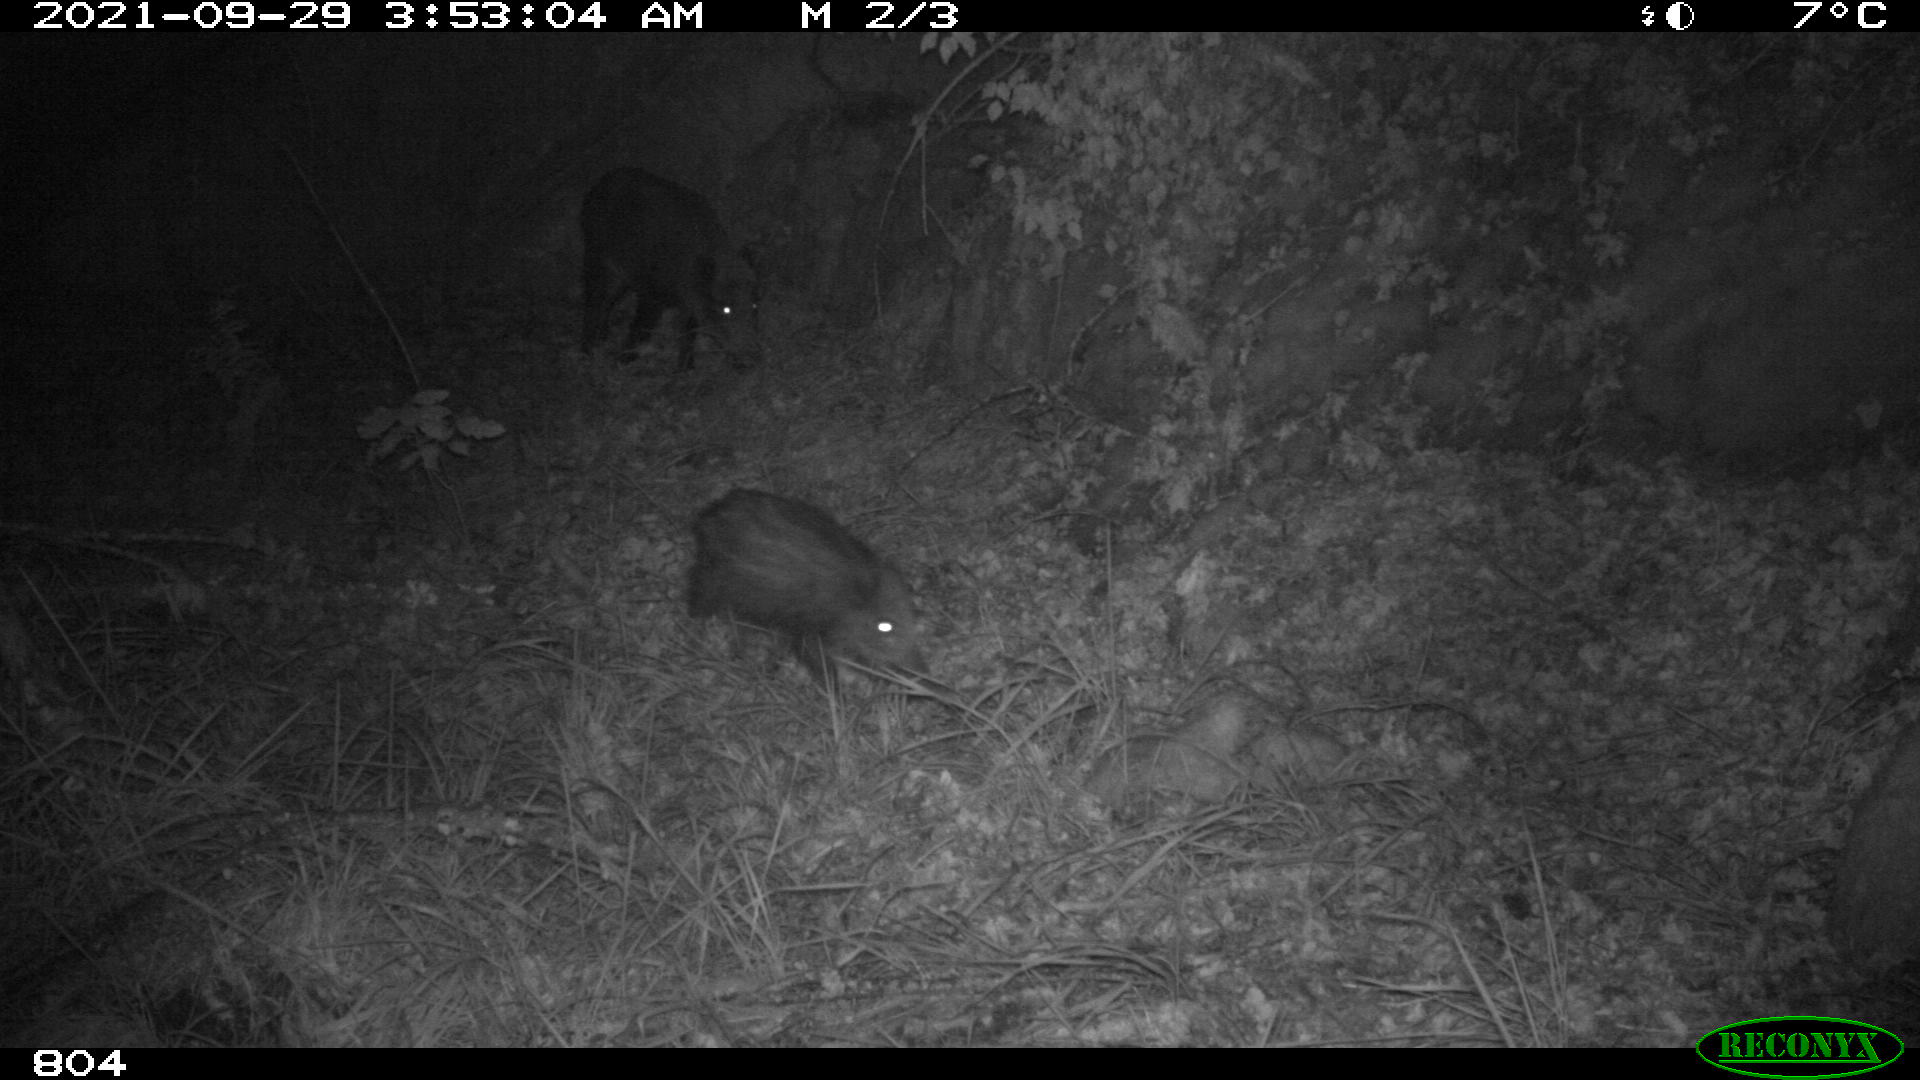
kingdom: Animalia
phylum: Chordata
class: Mammalia
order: Artiodactyla
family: Suidae
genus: Sus
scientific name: Sus scrofa
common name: Wild boar
